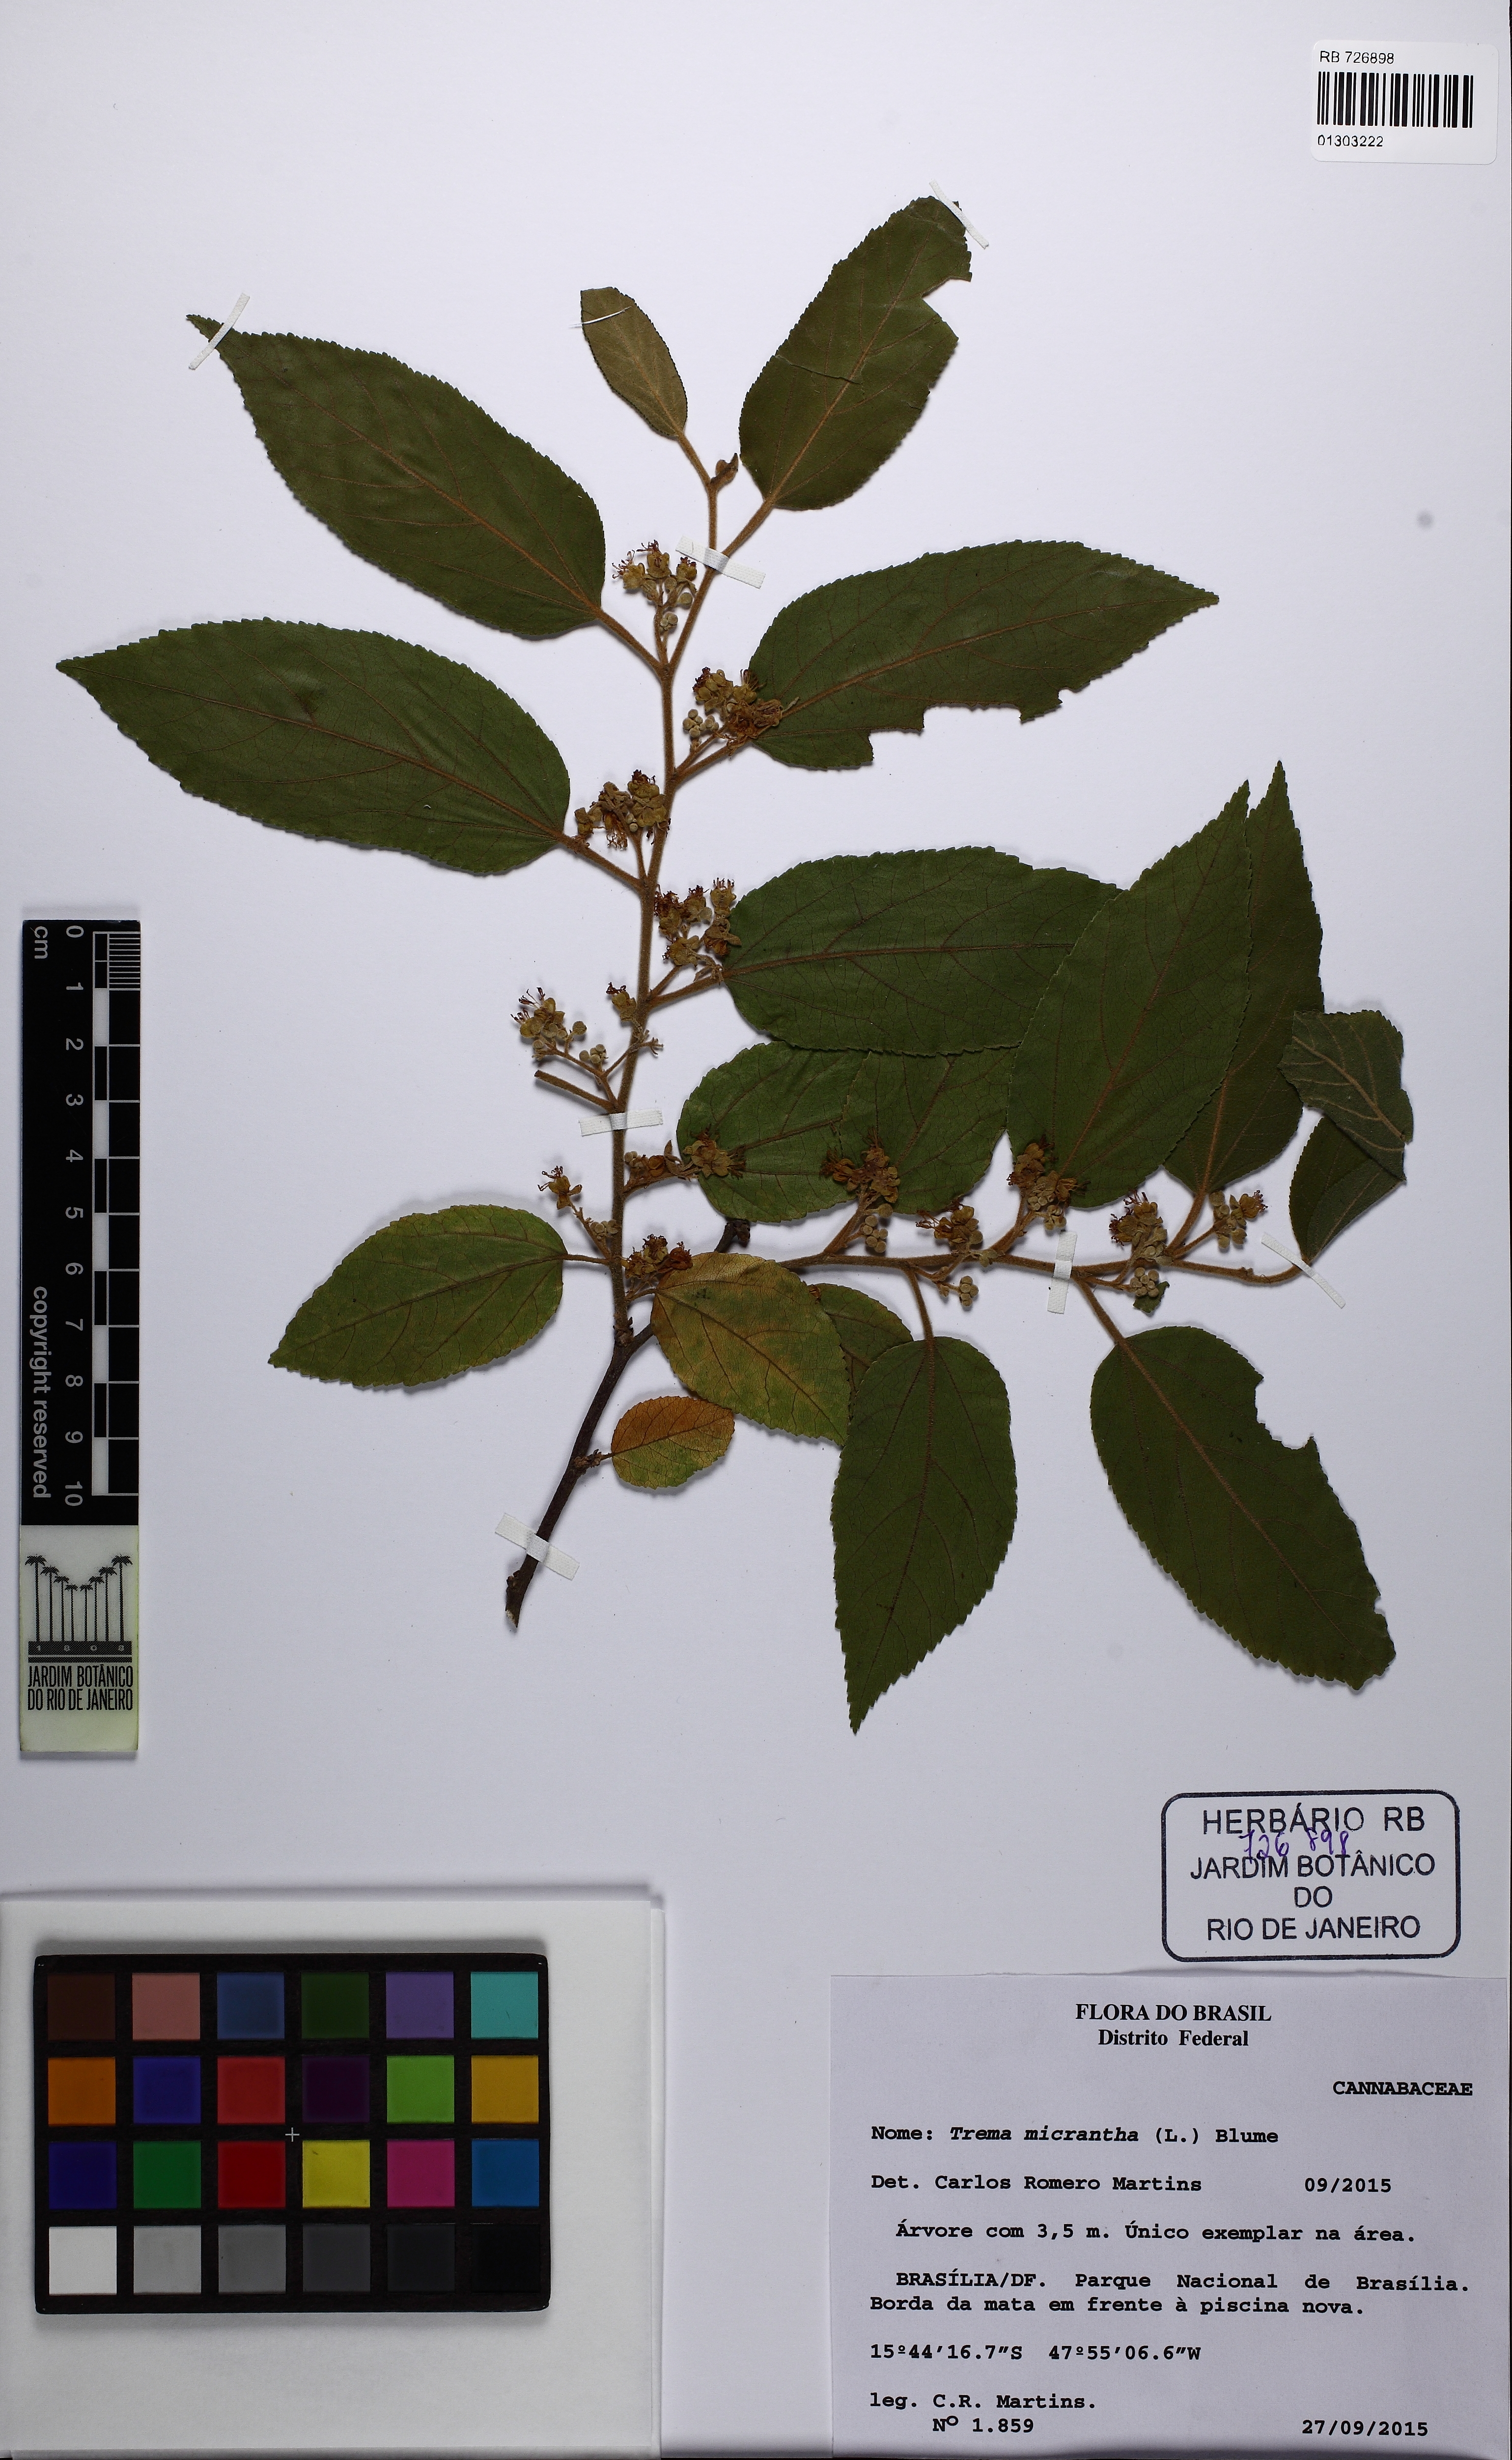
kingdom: Plantae
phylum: Tracheophyta
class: Magnoliopsida
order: Rosales
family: Cannabaceae
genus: Trema
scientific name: Trema micranthum
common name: Jamaican nettletree
